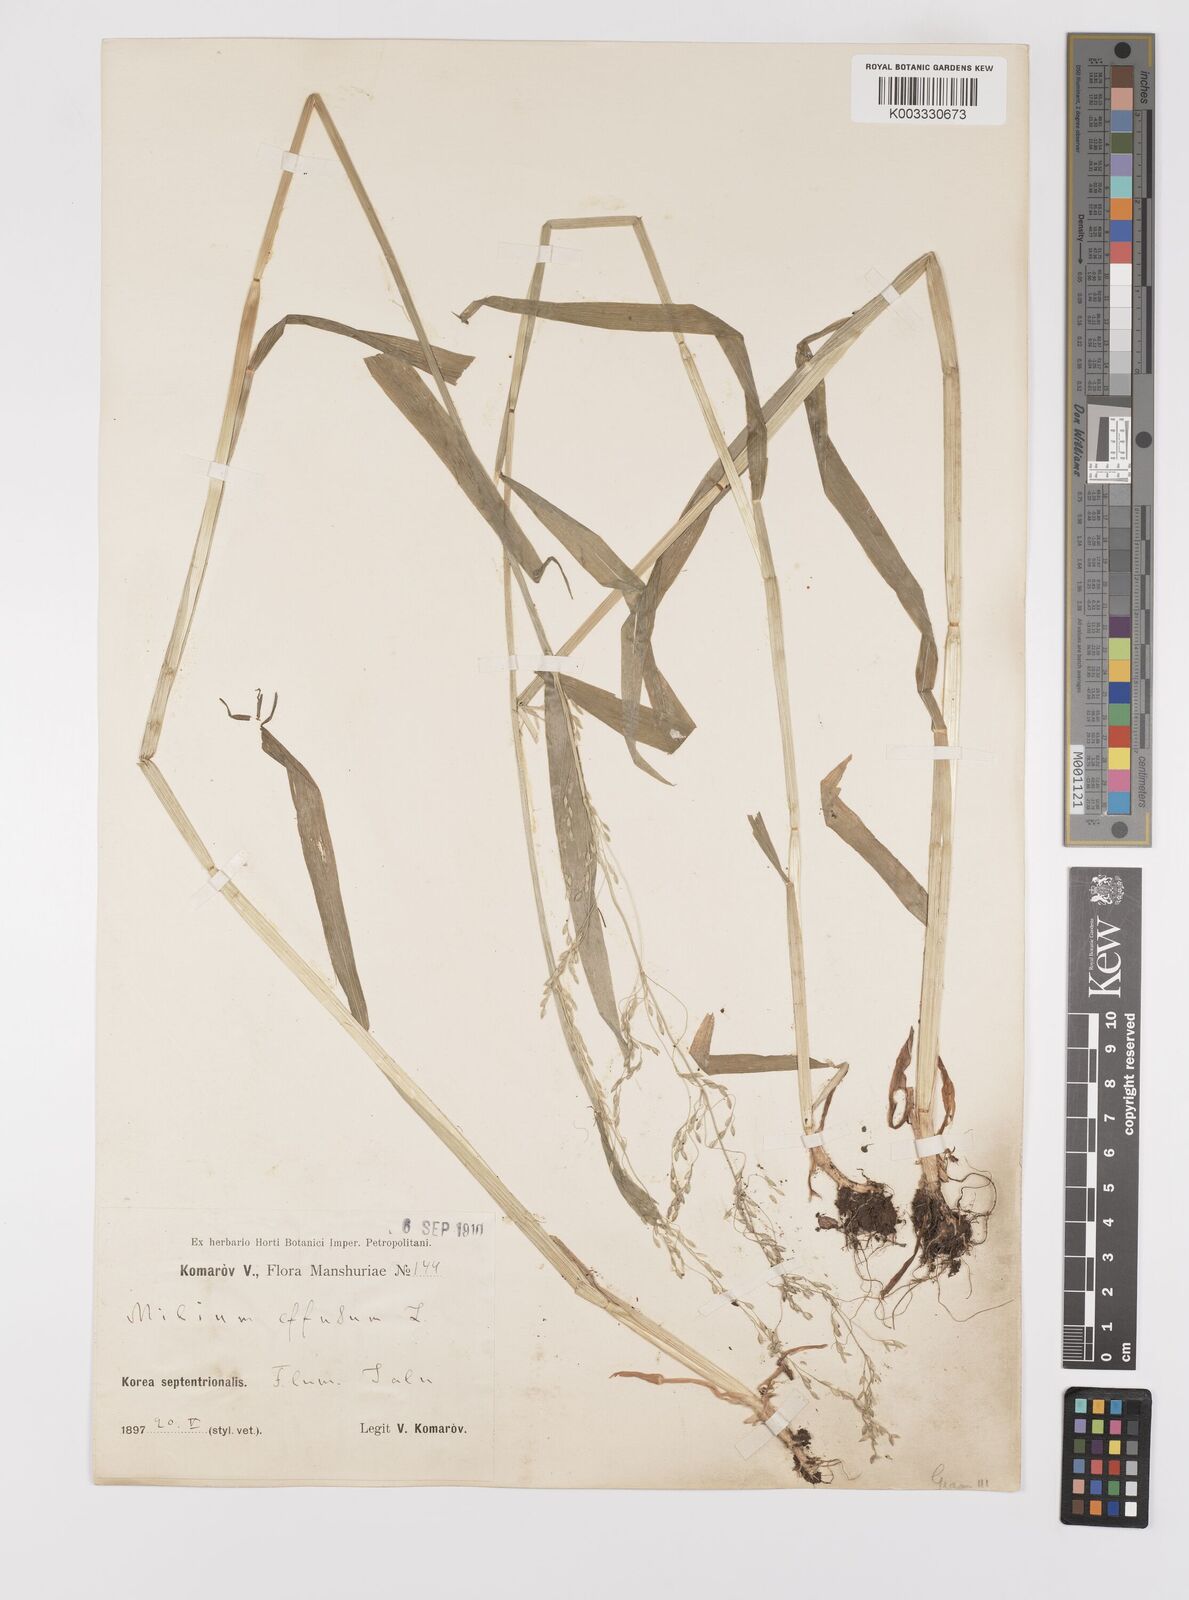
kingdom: Plantae
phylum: Tracheophyta
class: Liliopsida
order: Poales
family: Poaceae
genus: Milium
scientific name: Milium effusum
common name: Wood millet
